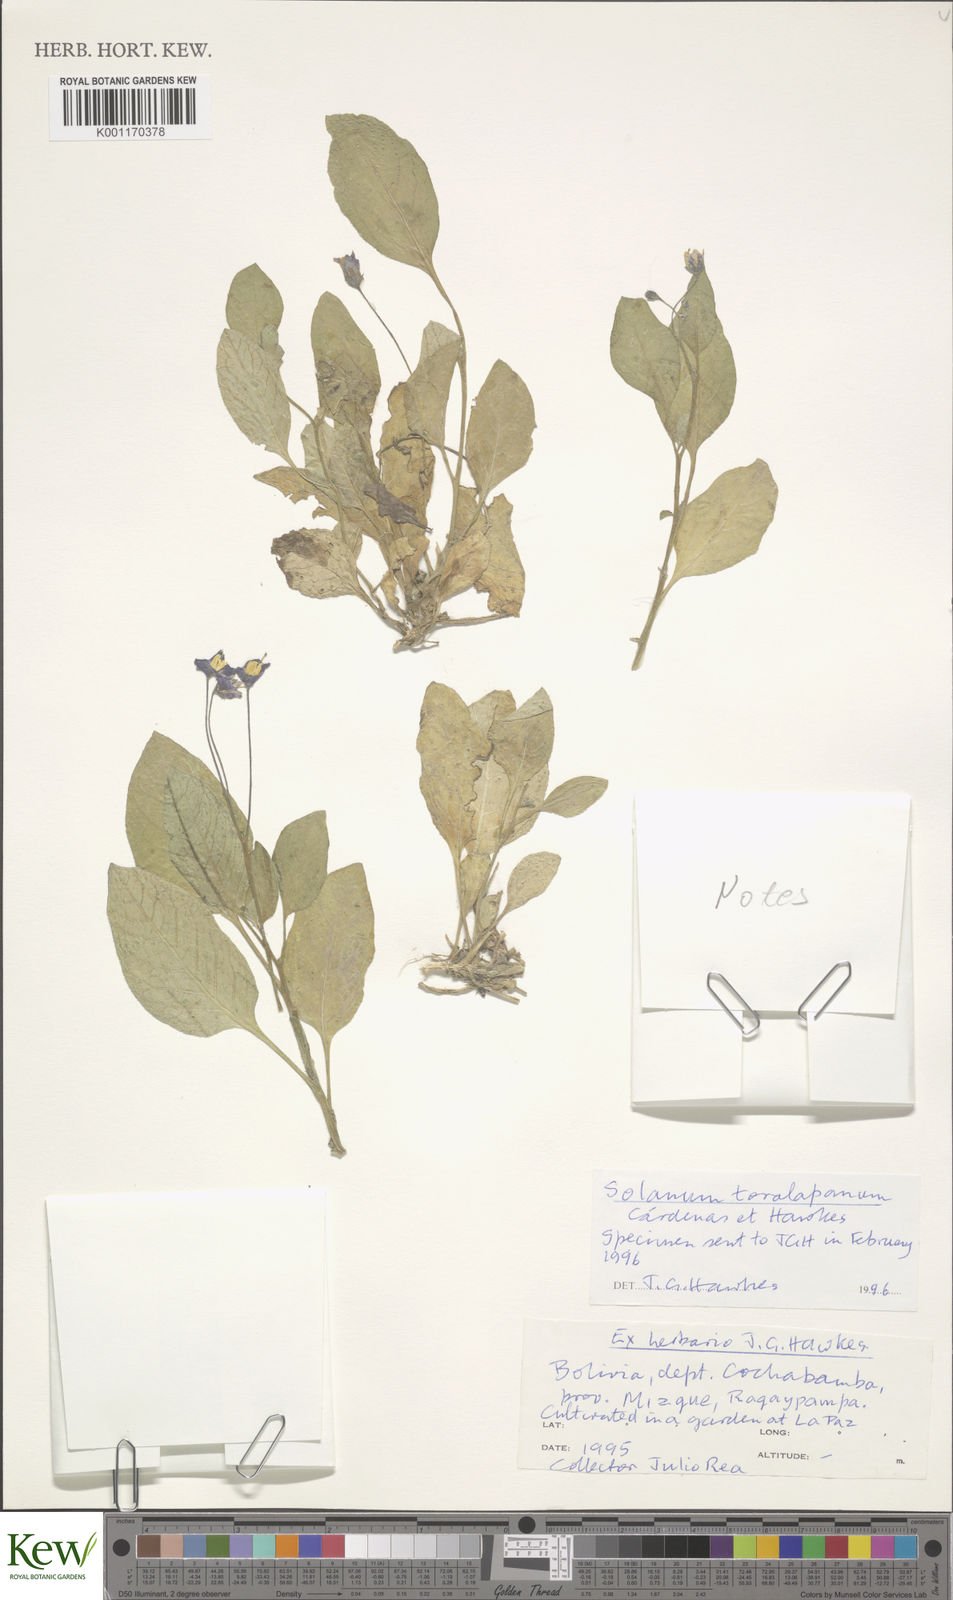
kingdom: Plantae
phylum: Tracheophyta
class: Magnoliopsida
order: Solanales
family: Solanaceae
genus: Solanum
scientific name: Solanum
